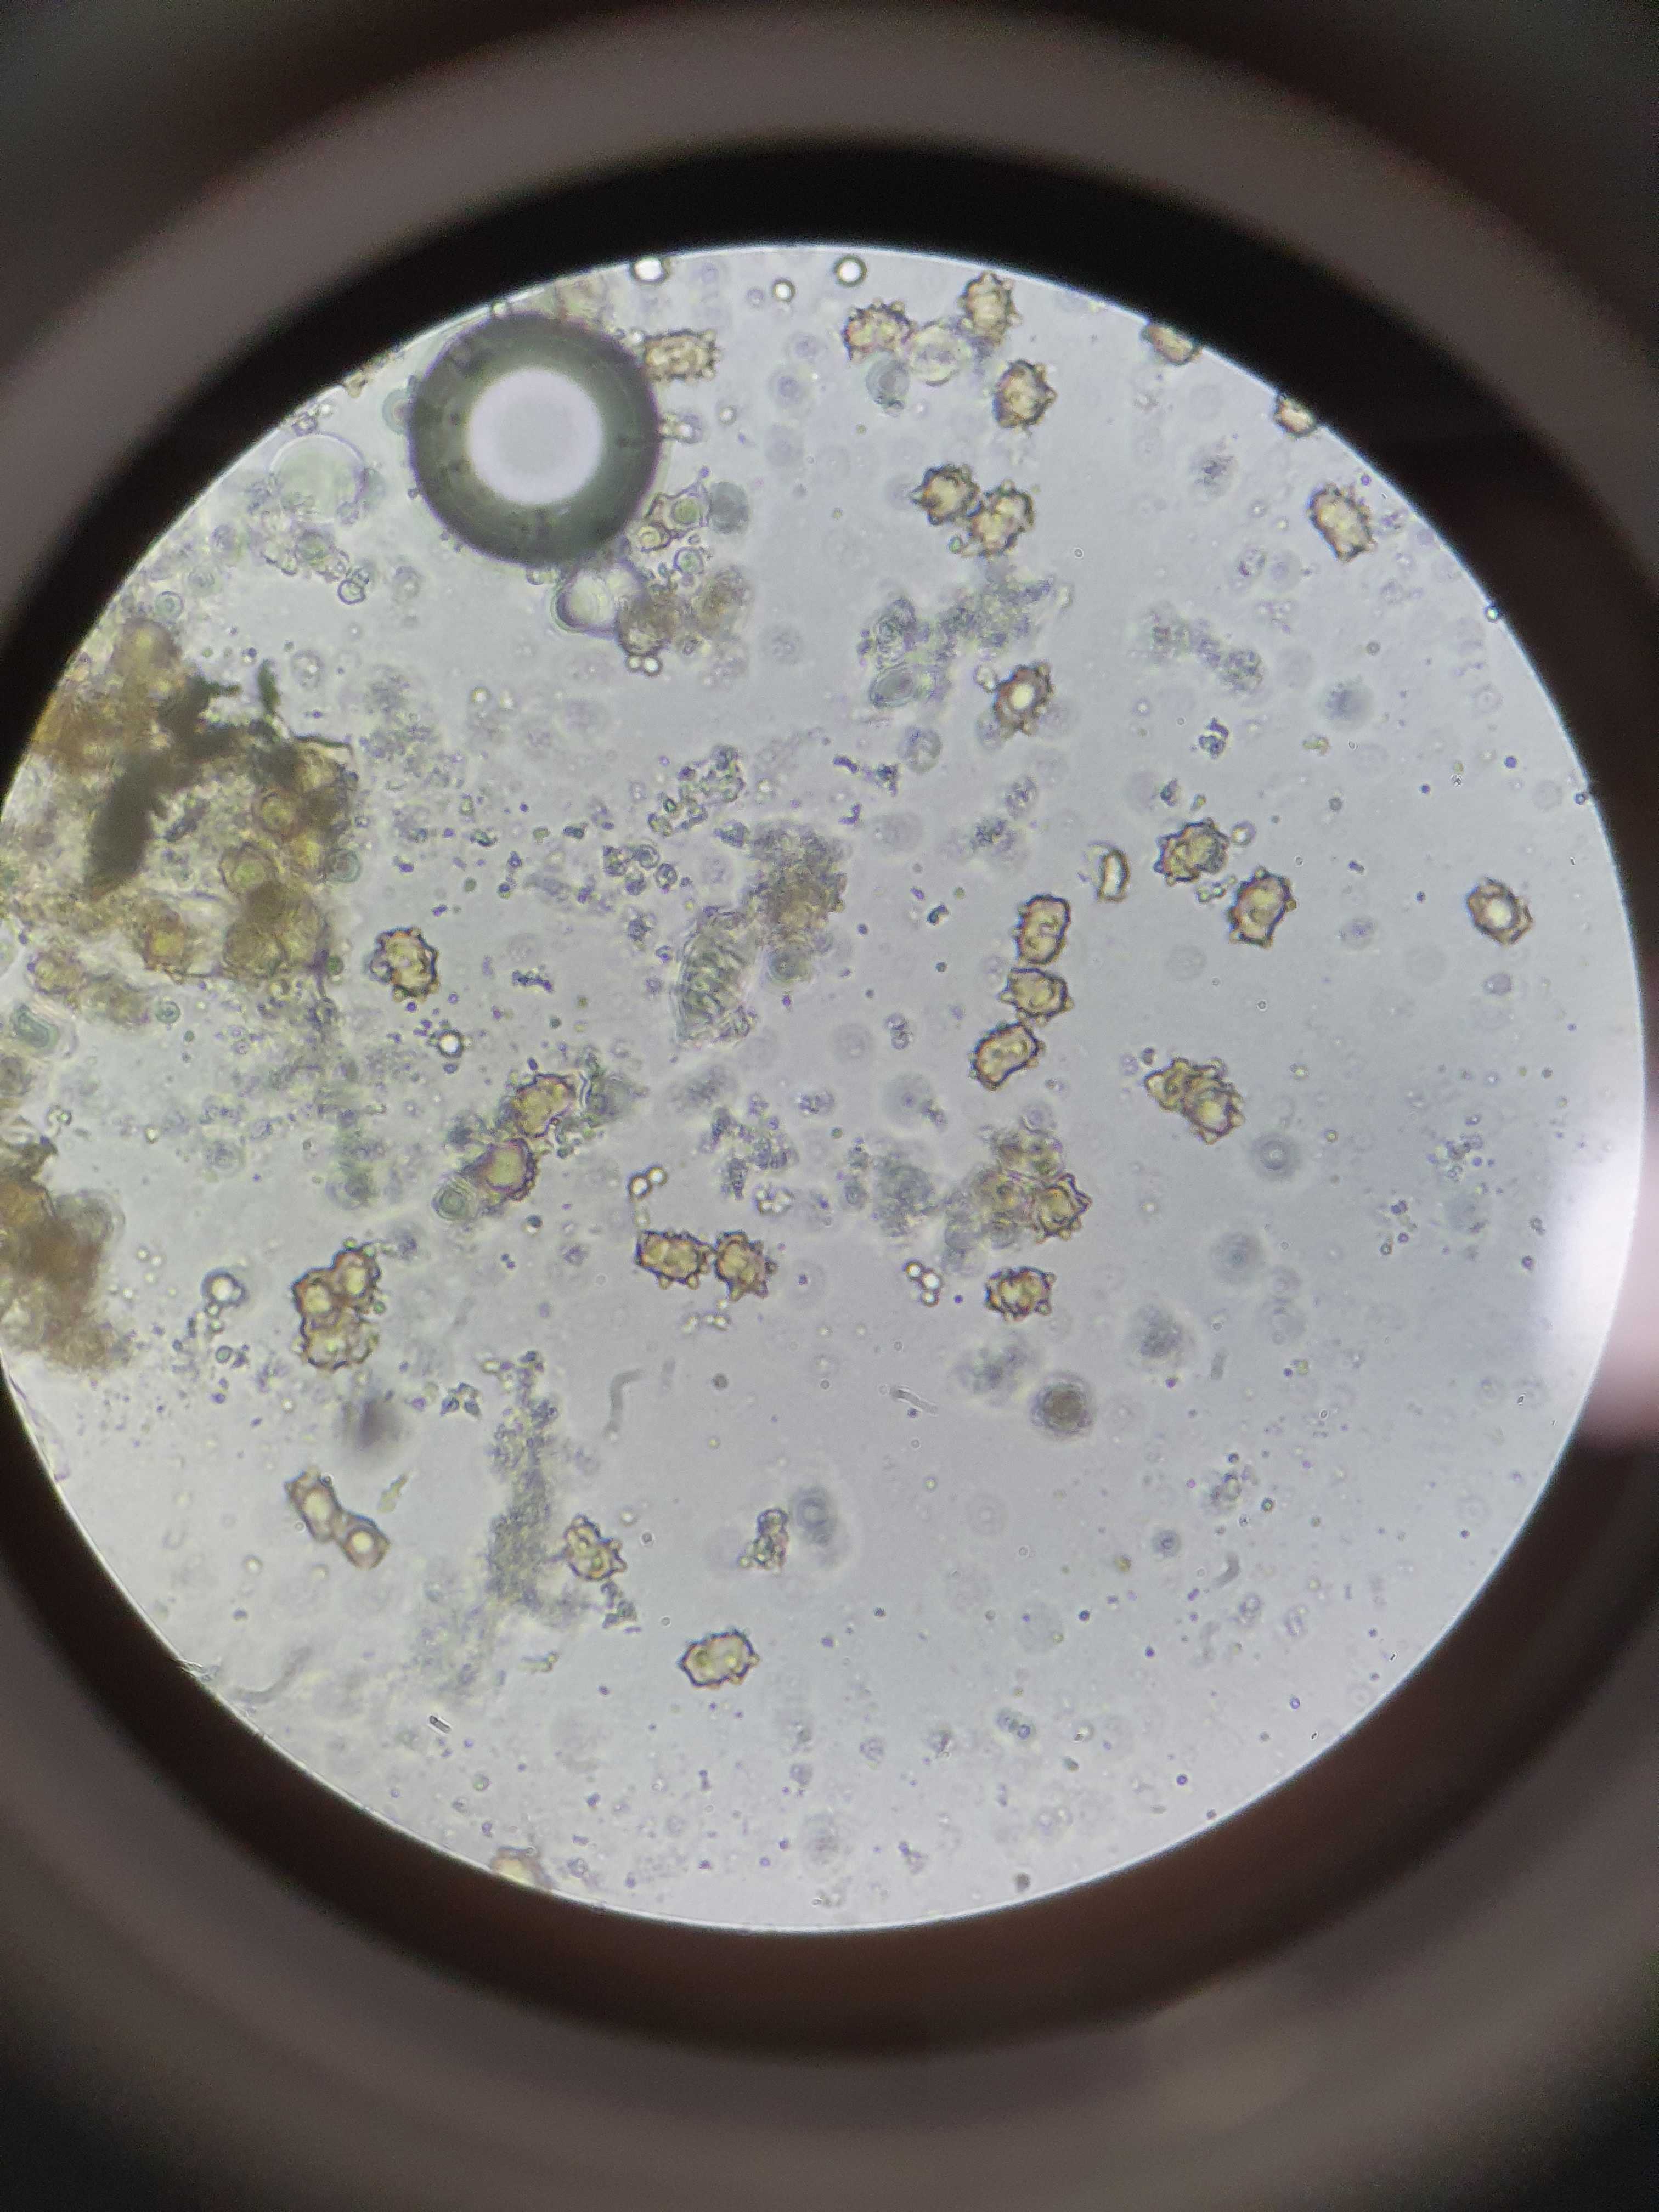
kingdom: Fungi
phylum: Basidiomycota
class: Agaricomycetes
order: Agaricales
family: Inocybaceae
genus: Inocybe
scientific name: Inocybe lanuginosa
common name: uldskællet trævlhat
